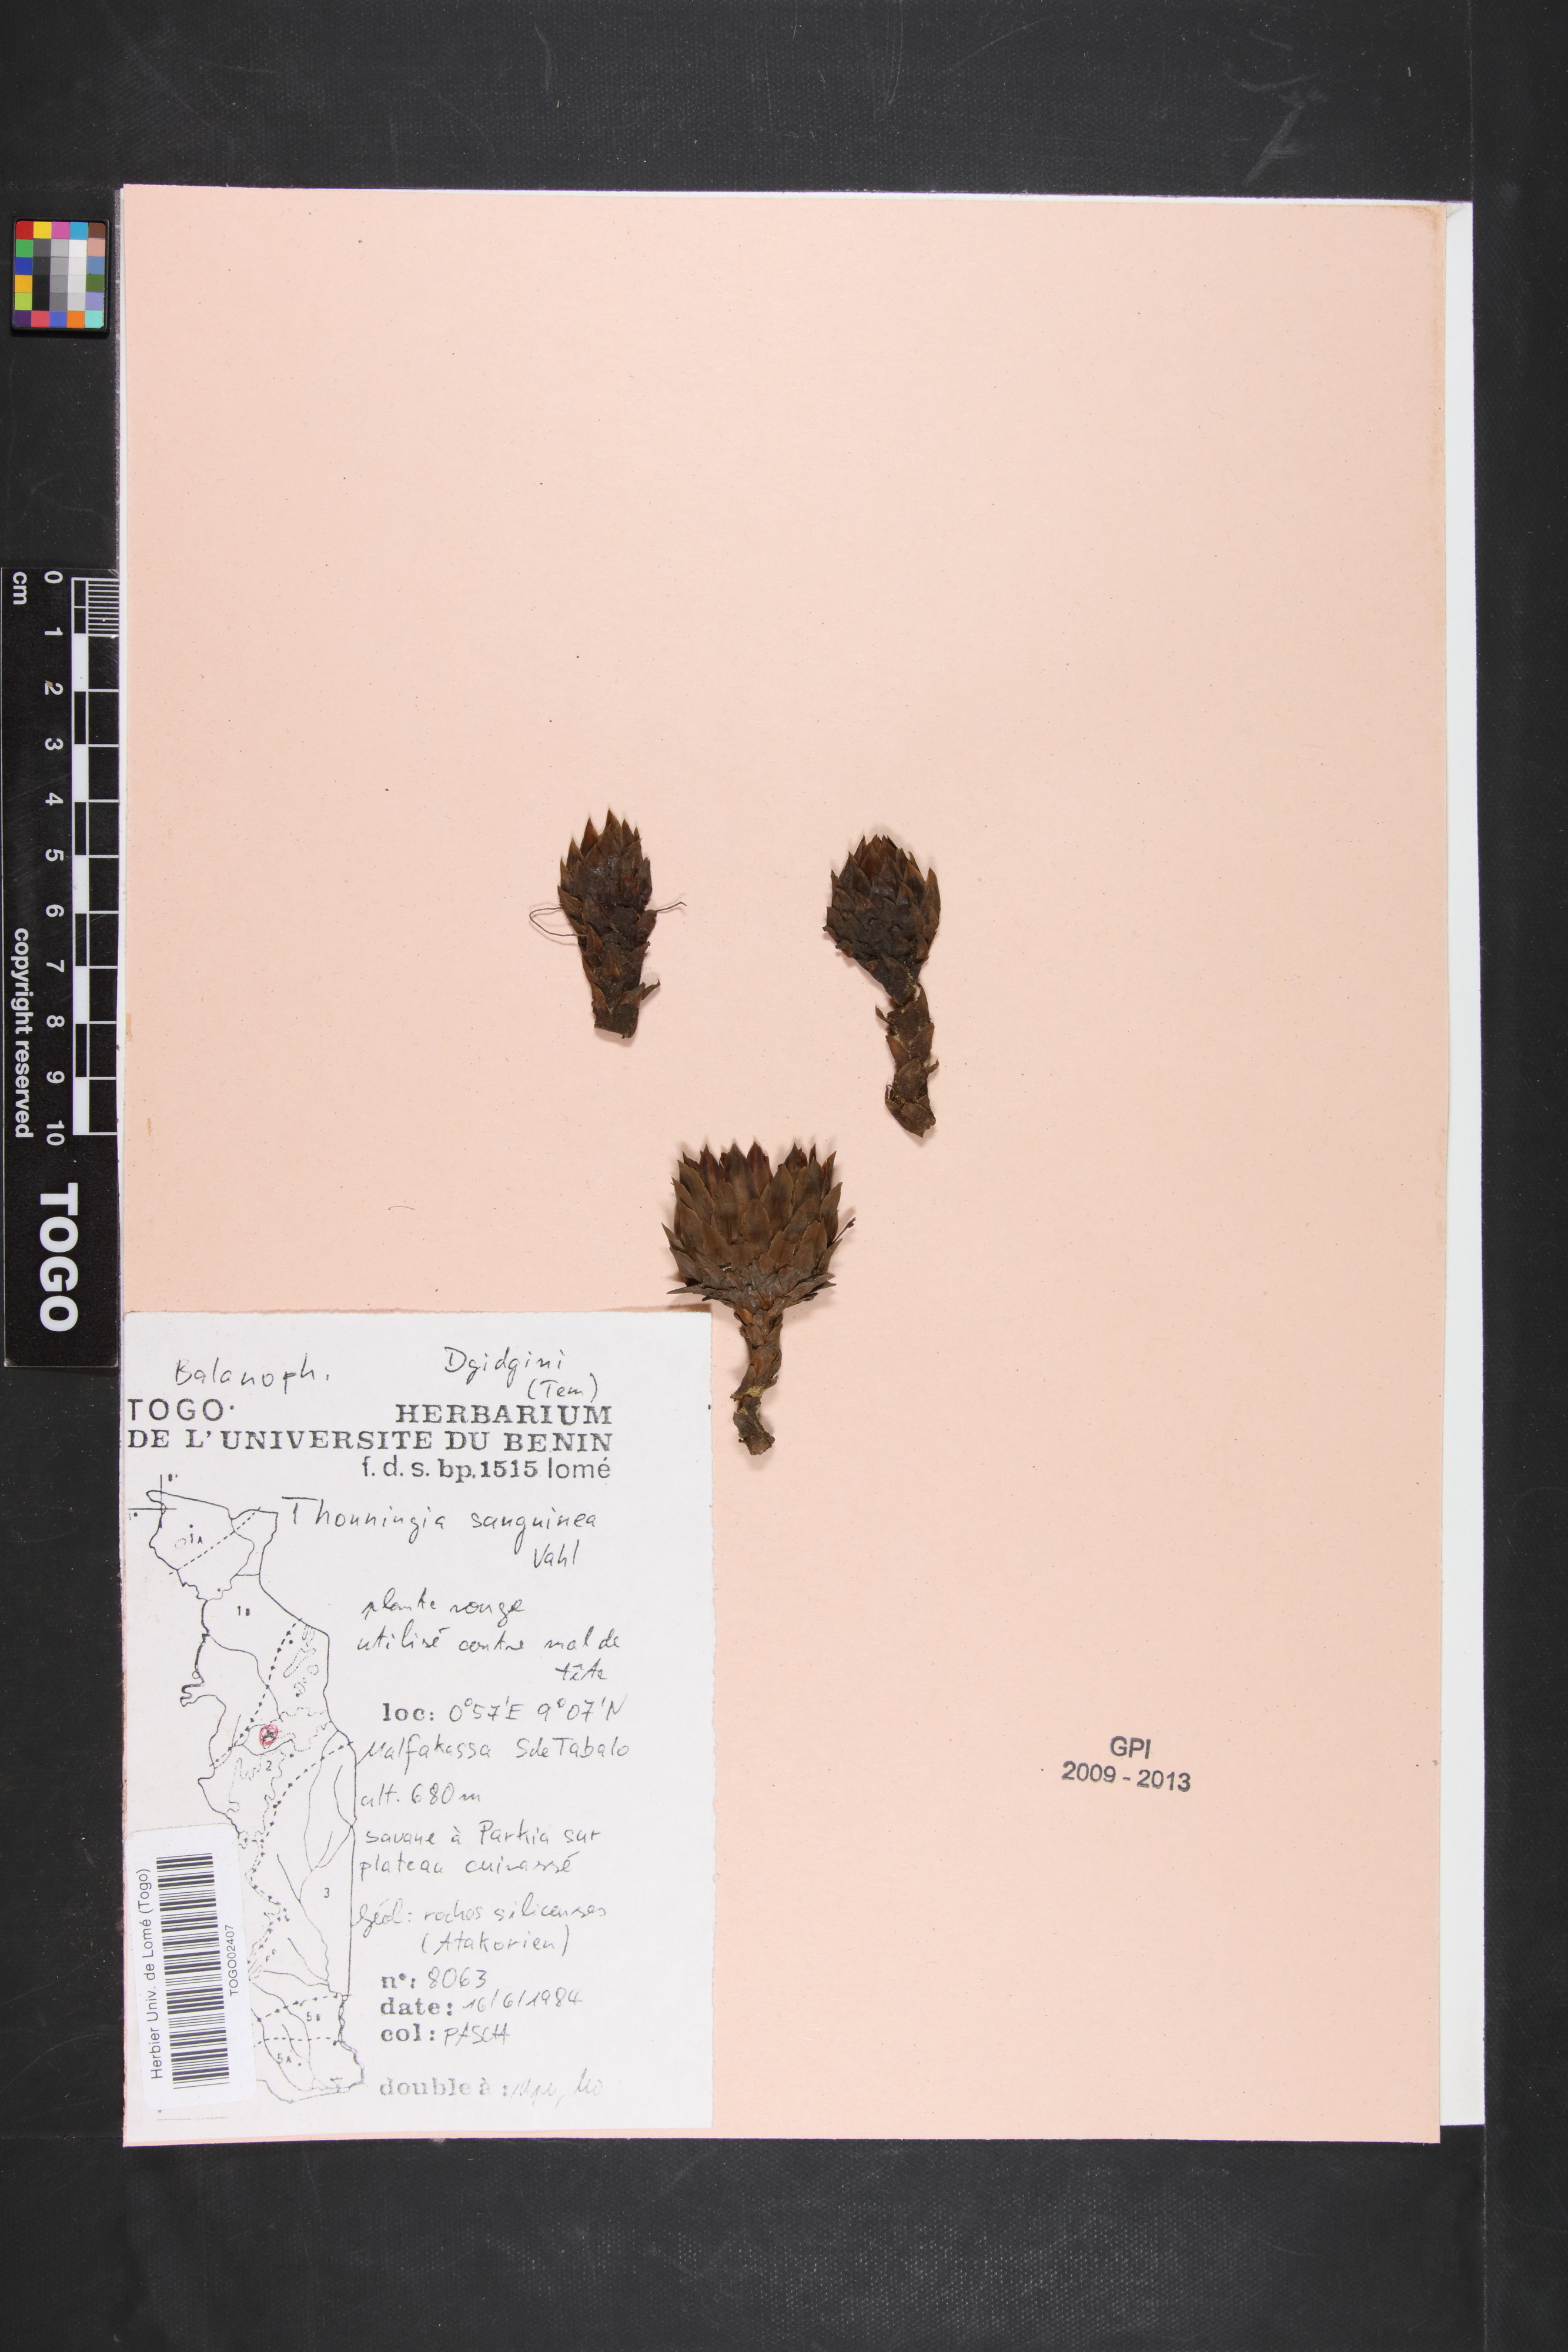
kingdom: Plantae
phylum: Tracheophyta
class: Magnoliopsida
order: Santalales
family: Balanophoraceae
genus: Thonningia
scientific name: Thonningia sanguinea
